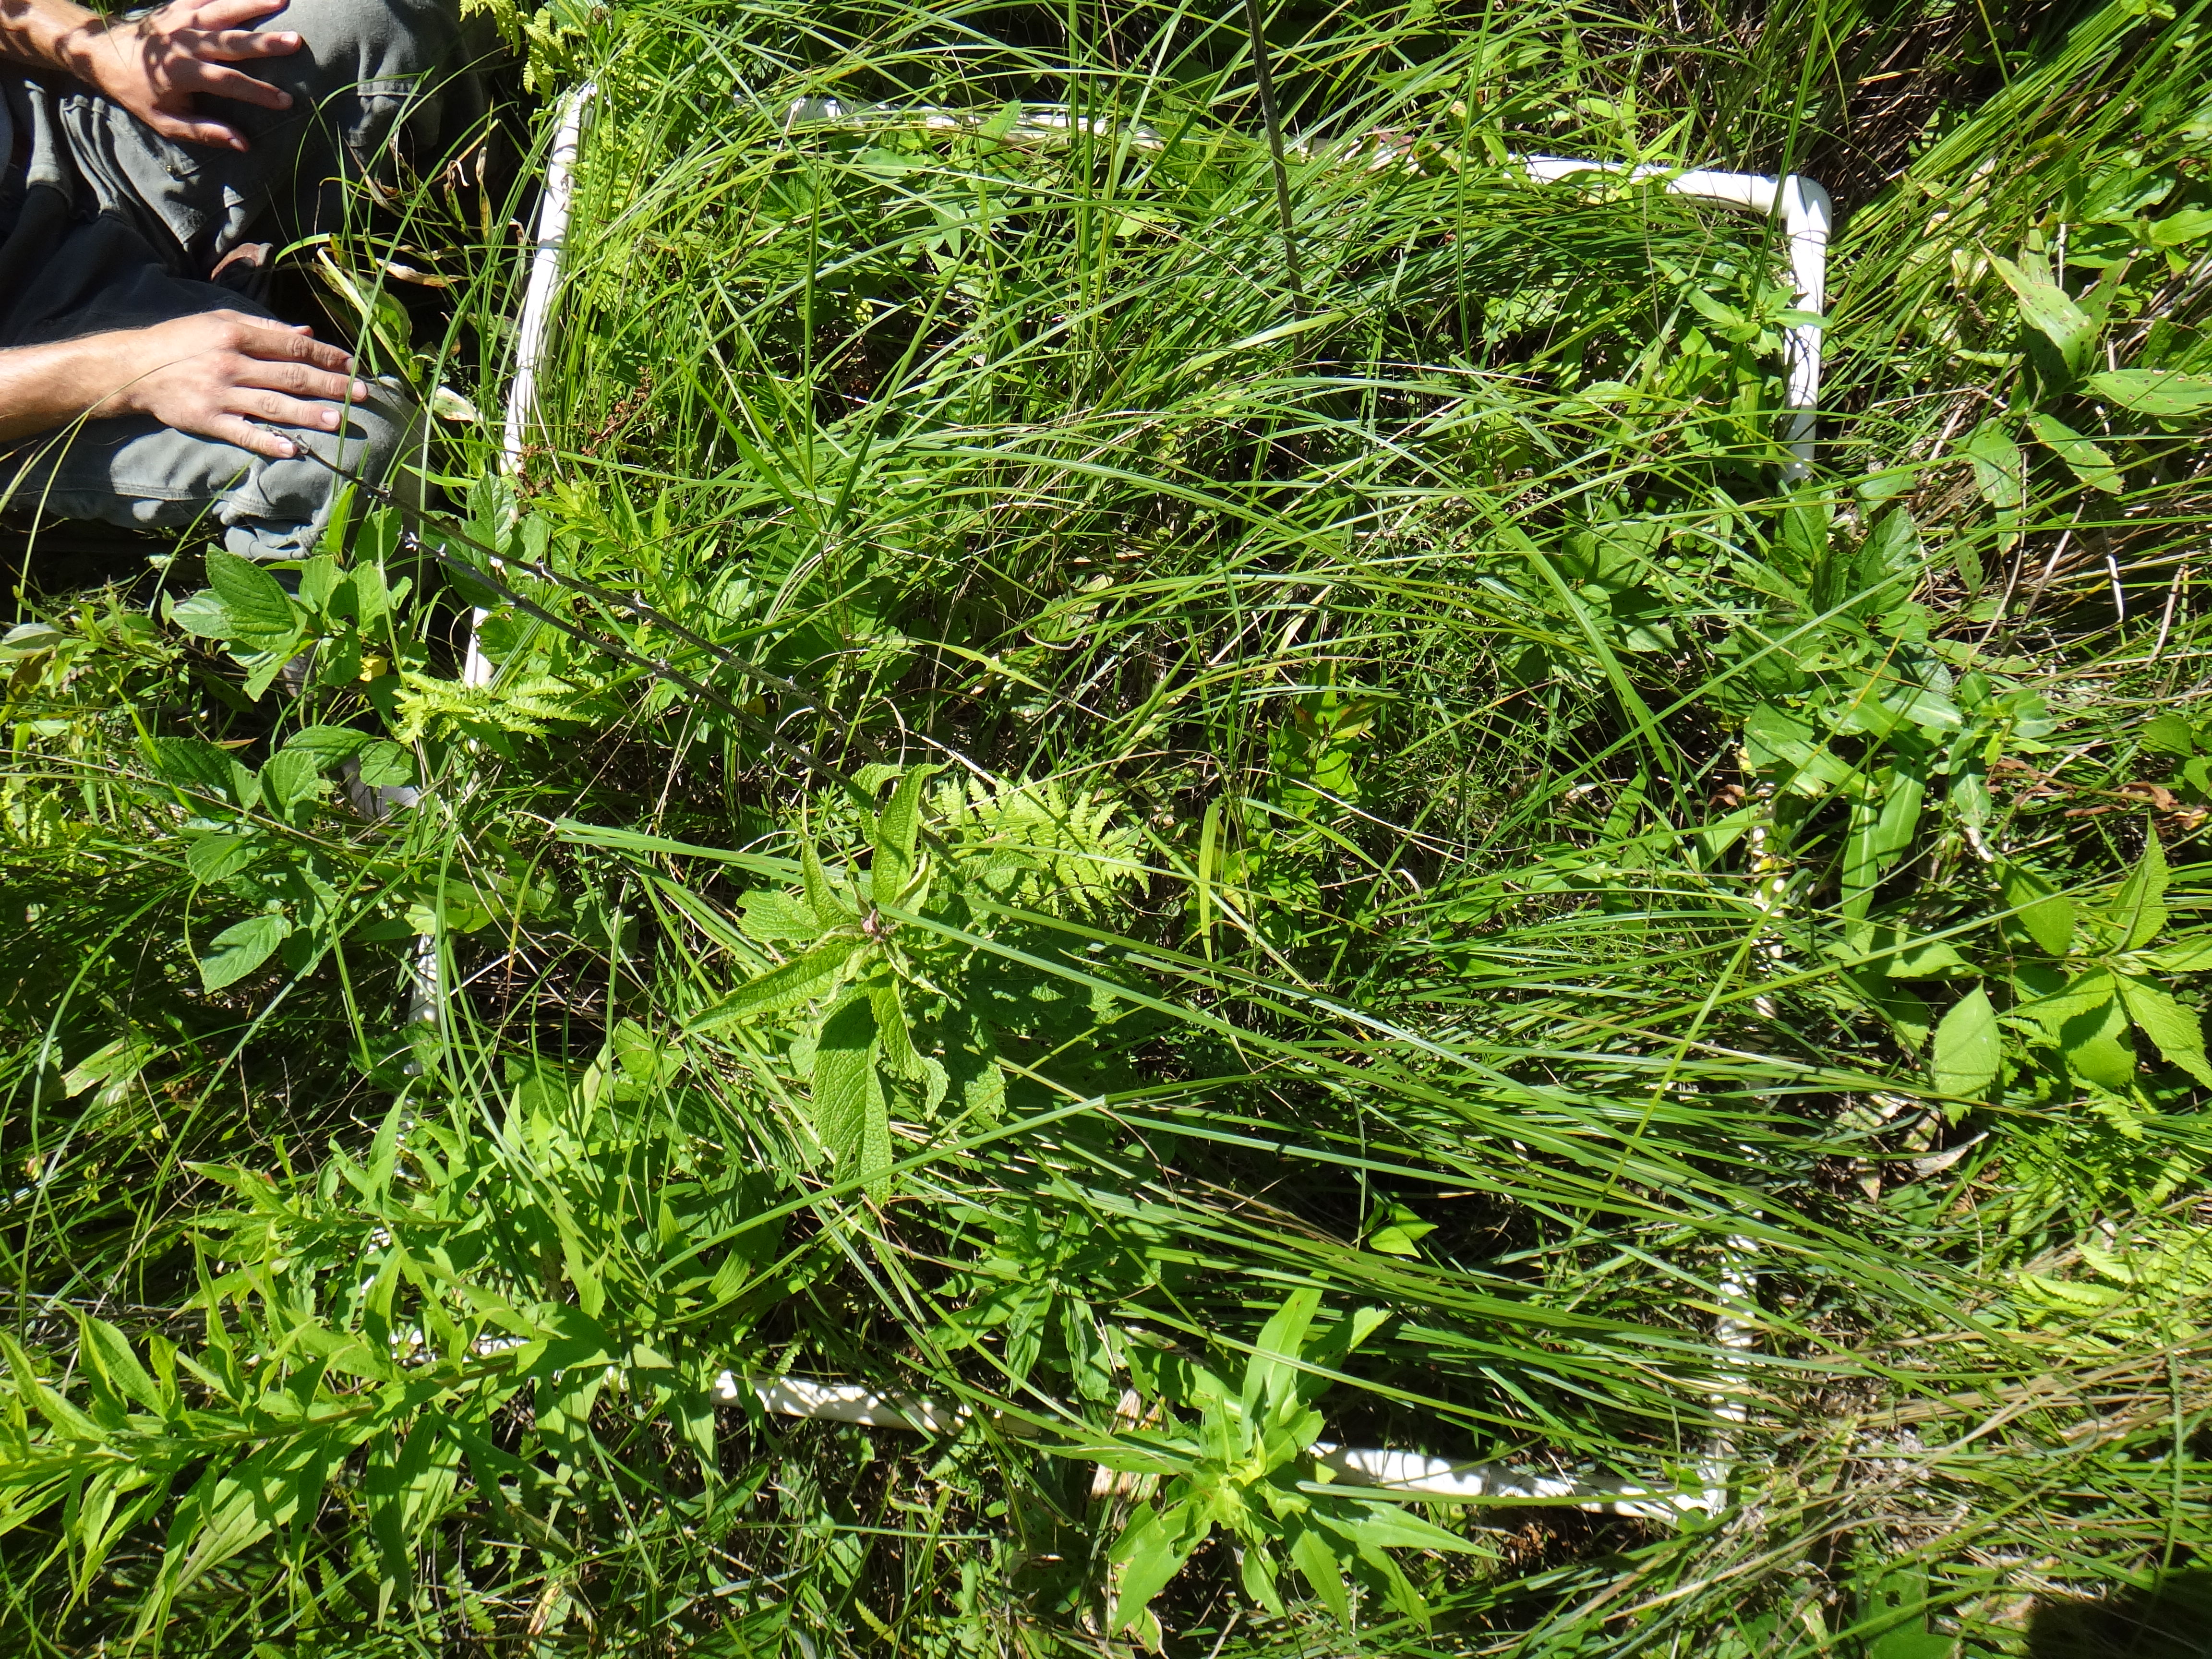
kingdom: Plantae
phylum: Tracheophyta
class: Magnoliopsida
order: Asterales
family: Asteraceae
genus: Symphyotrichum
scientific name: Symphyotrichum lanceolatum
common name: Panicled aster
